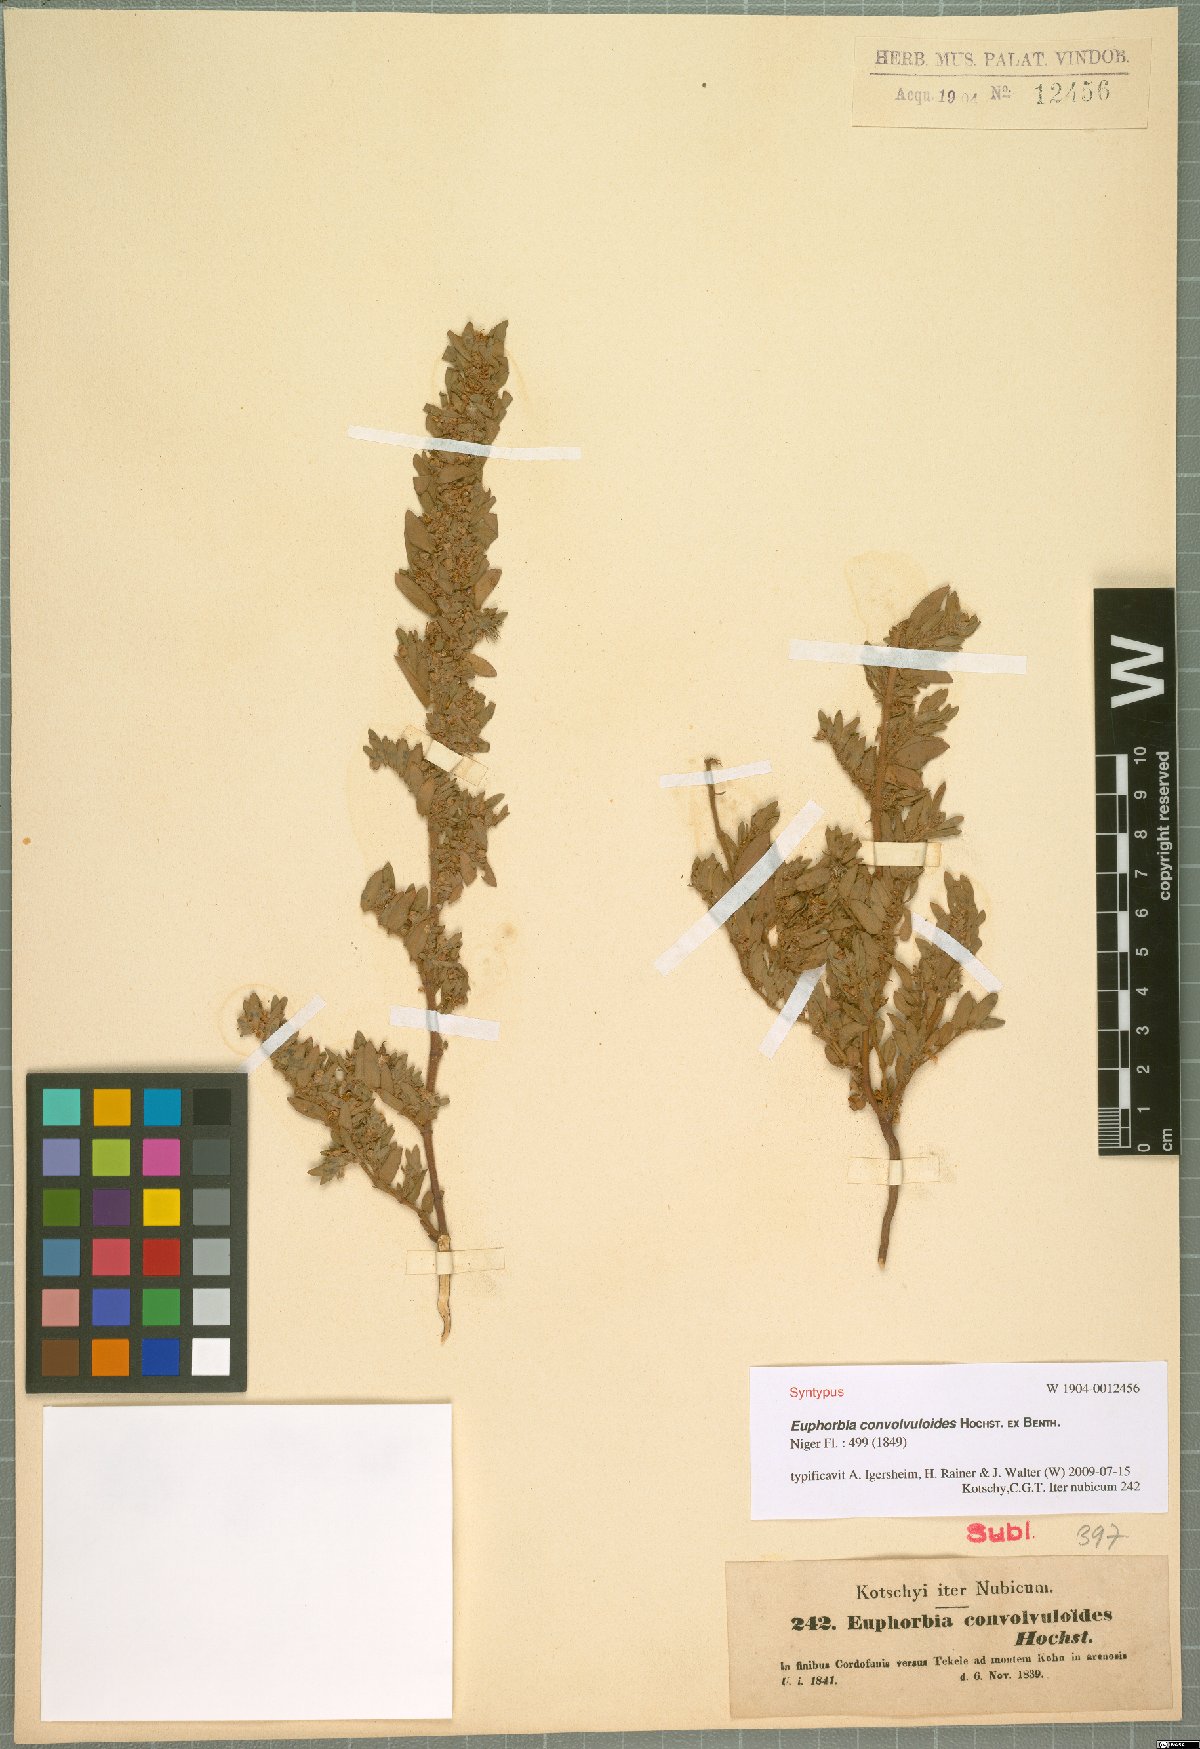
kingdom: Plantae
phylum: Tracheophyta
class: Magnoliopsida
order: Malpighiales
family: Euphorbiaceae
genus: Euphorbia
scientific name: Euphorbia convolvuloides
